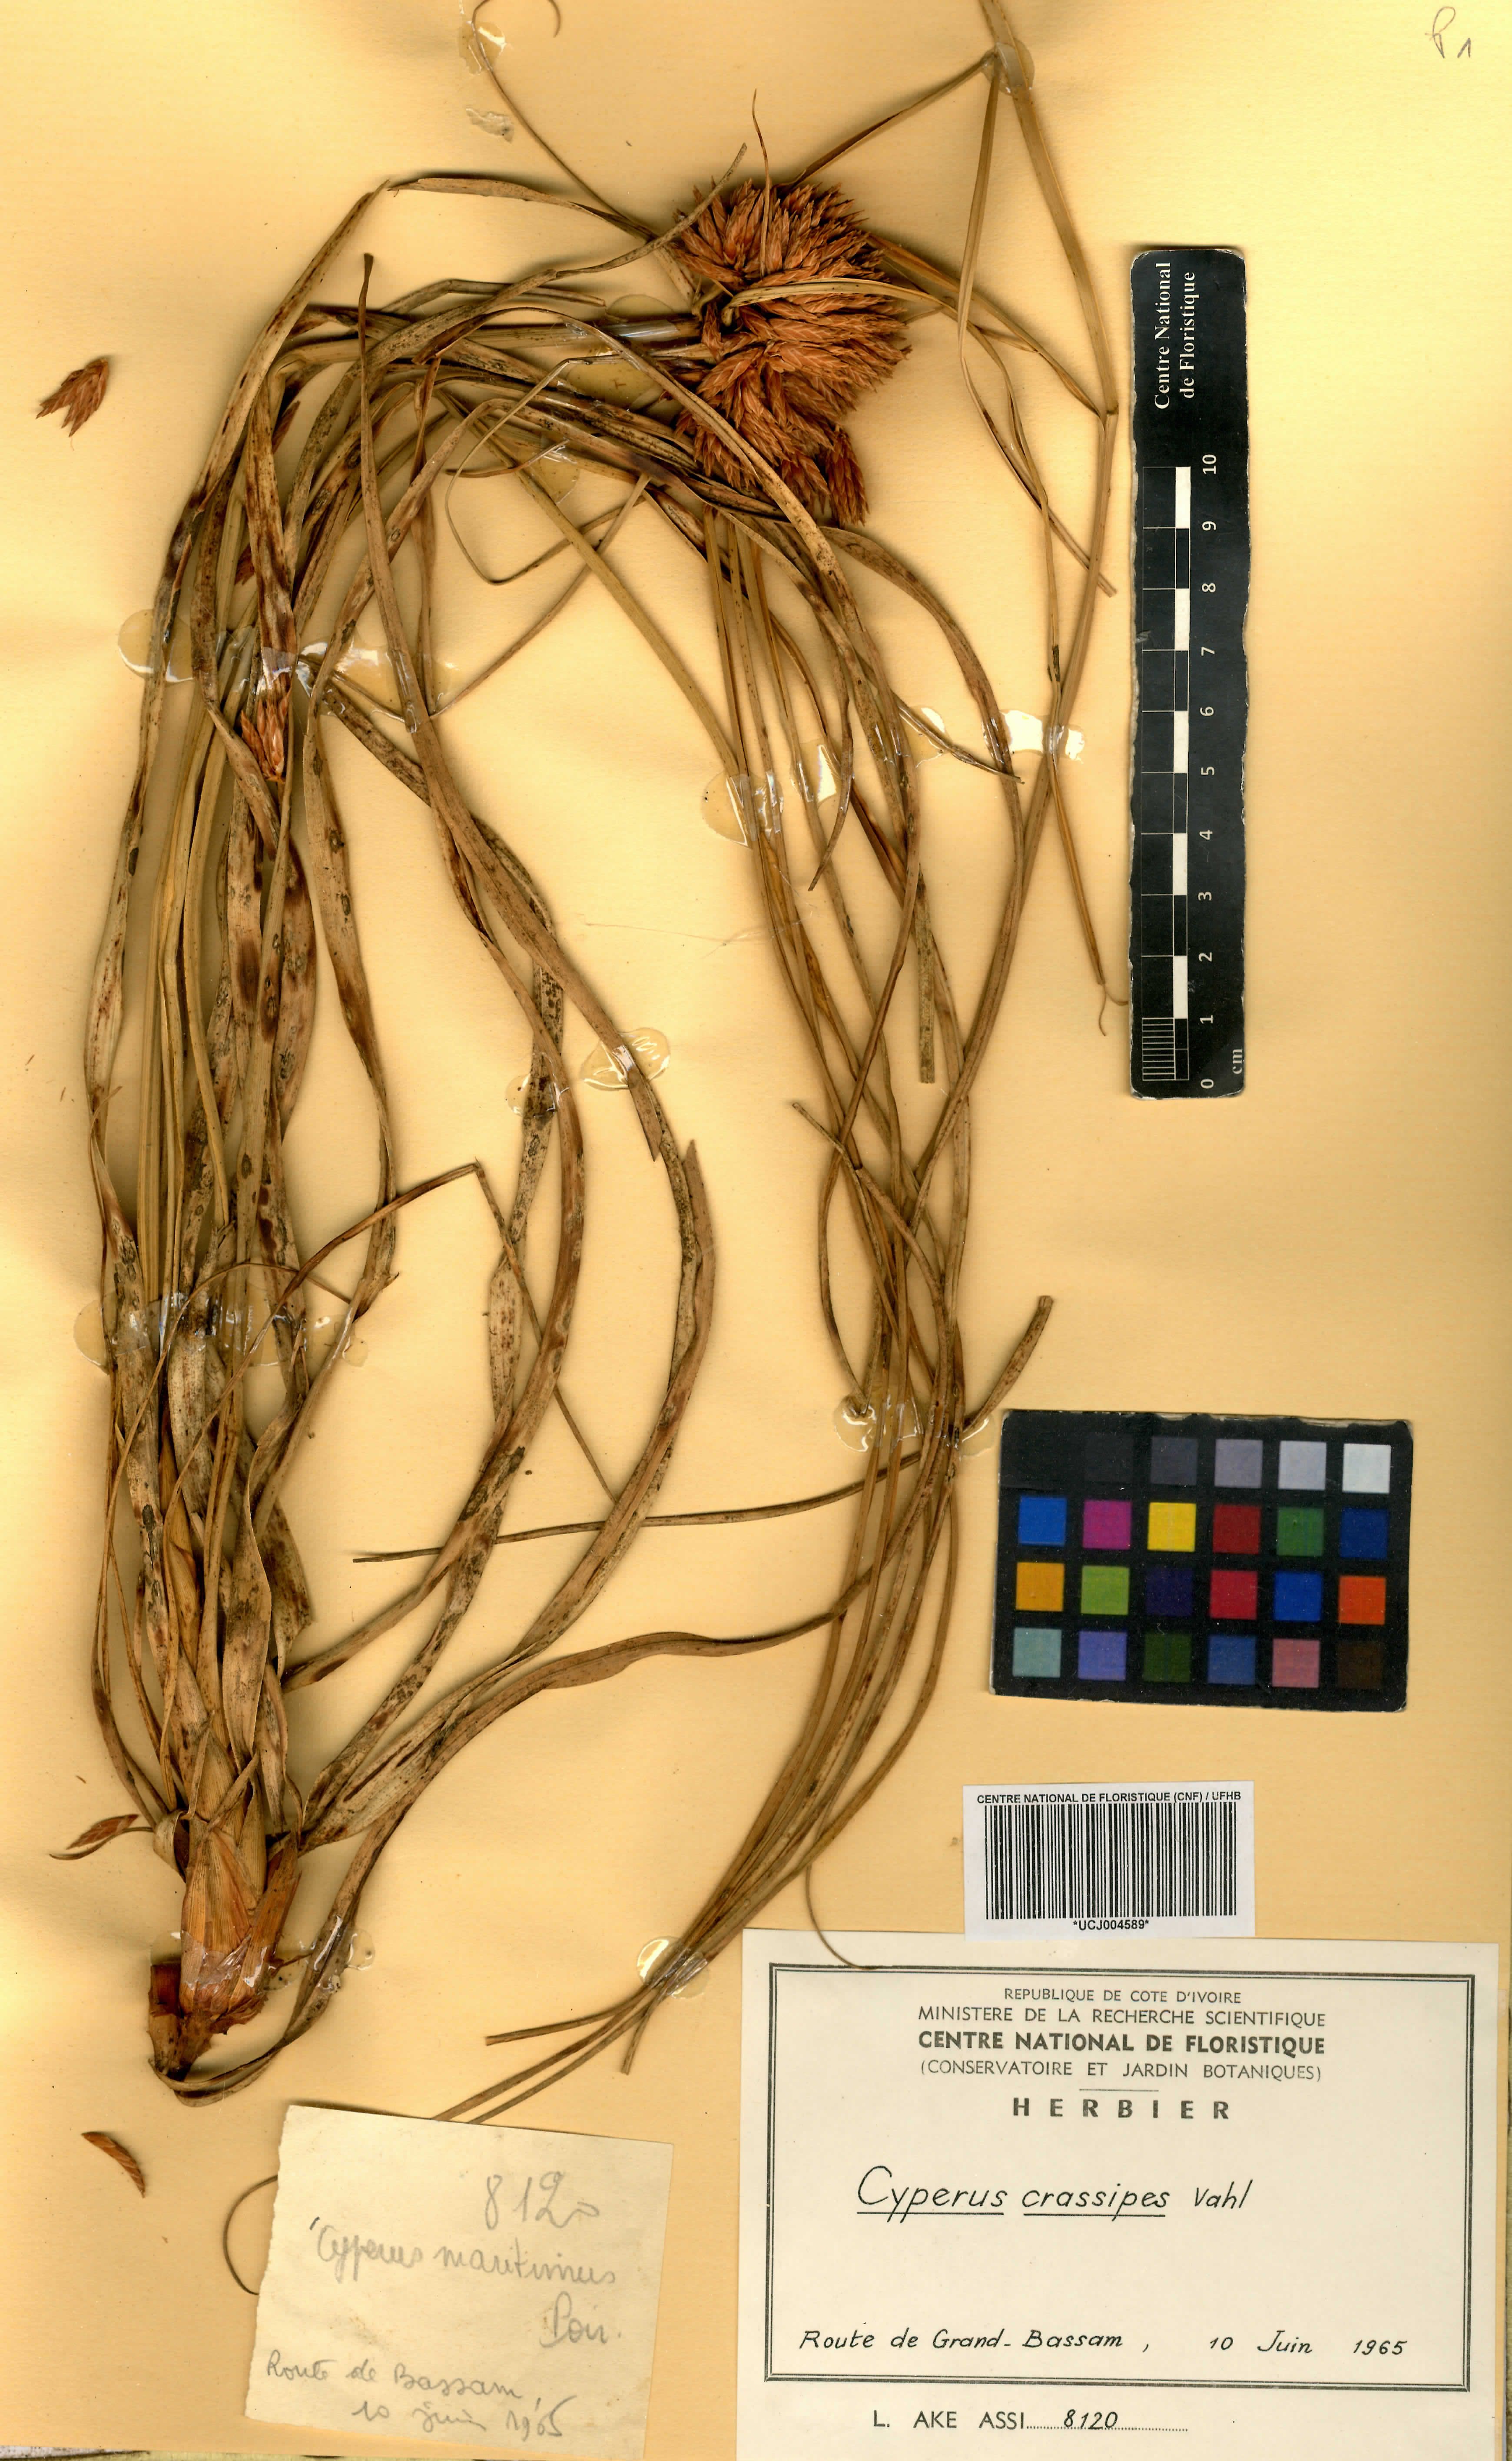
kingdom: Plantae
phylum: Tracheophyta
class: Liliopsida
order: Poales
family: Cyperaceae
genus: Cyperus
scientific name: Cyperus crassipes
